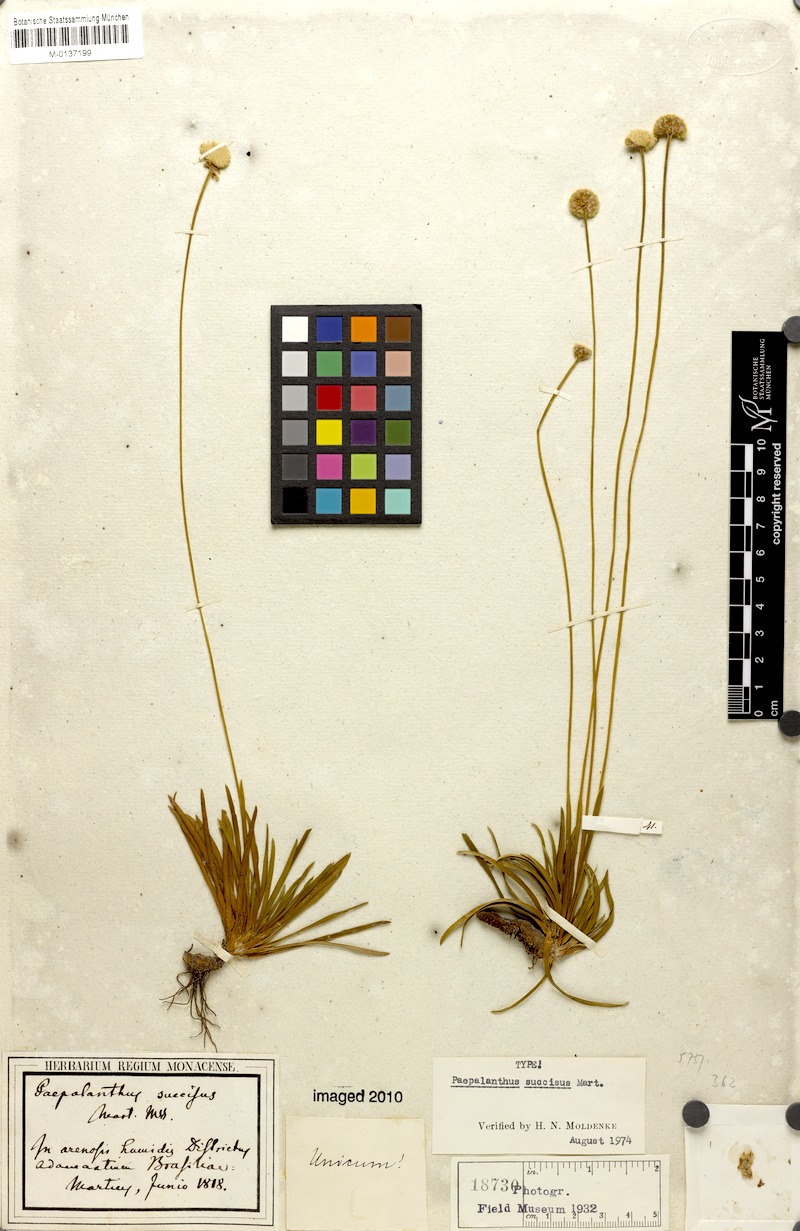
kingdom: Plantae
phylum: Tracheophyta
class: Liliopsida
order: Poales
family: Eriocaulaceae
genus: Paepalanthus
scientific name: Paepalanthus succisus
